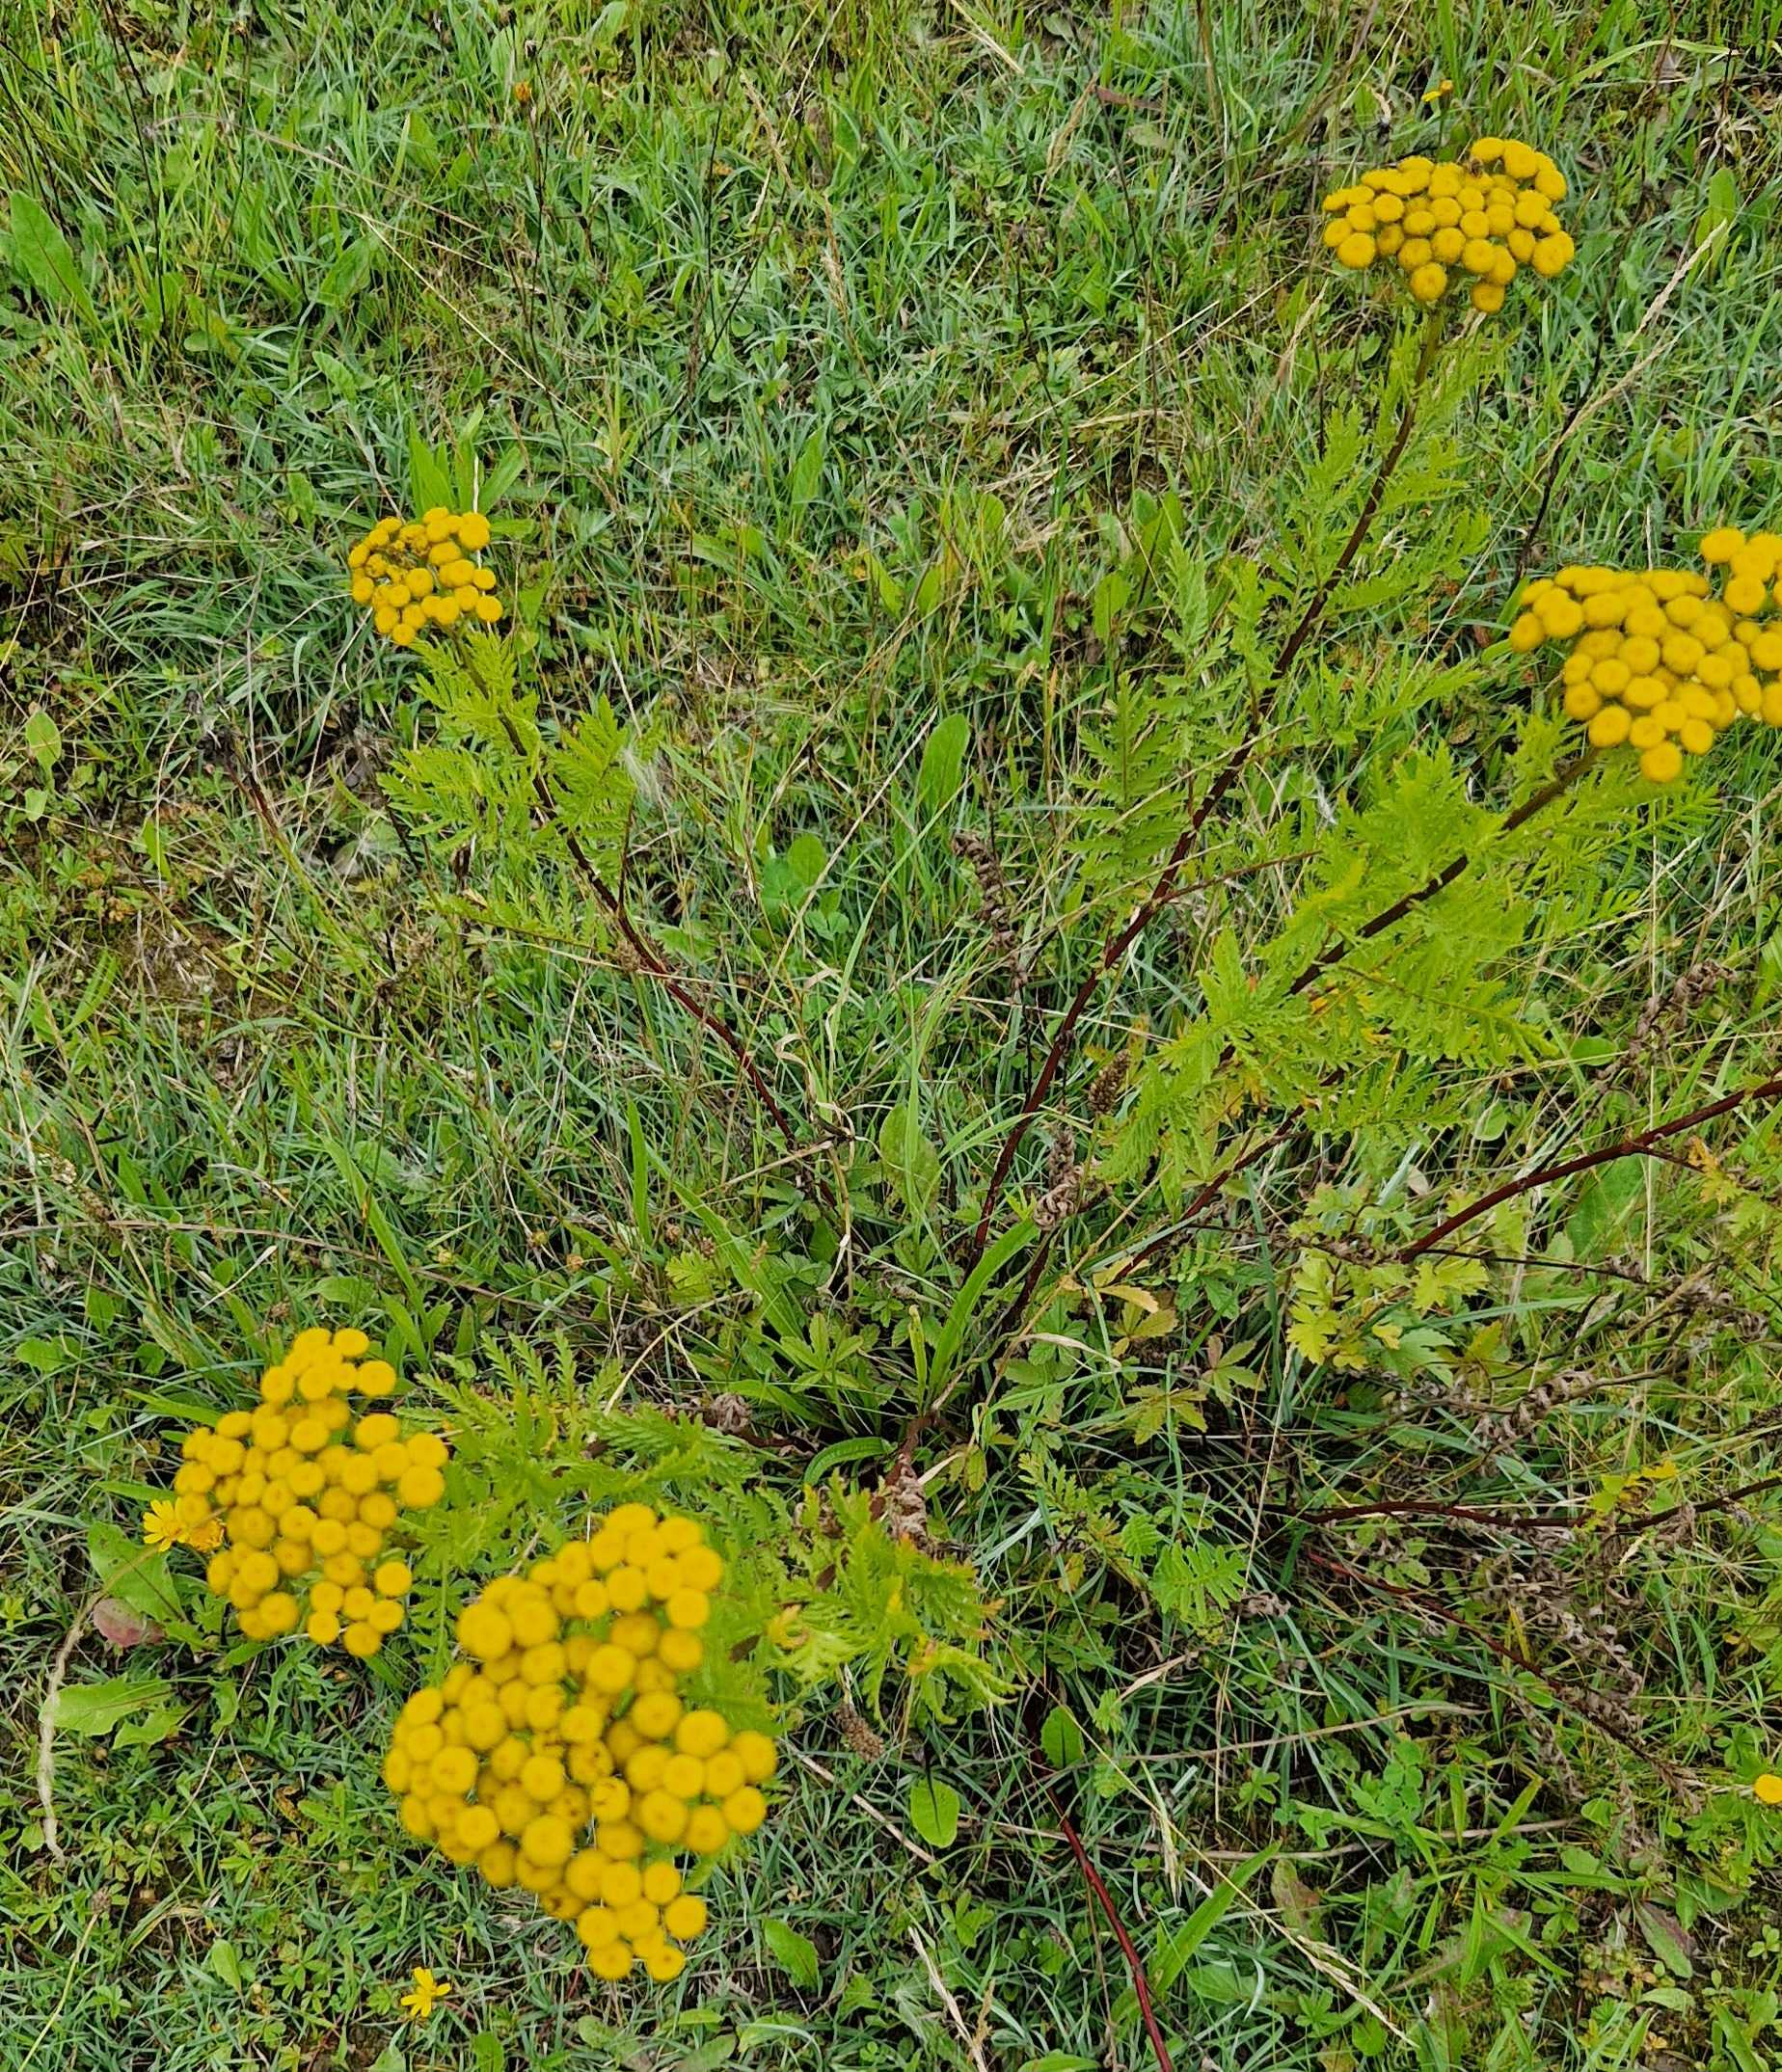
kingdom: Plantae
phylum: Tracheophyta
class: Magnoliopsida
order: Asterales
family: Asteraceae
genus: Tanacetum
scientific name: Tanacetum vulgare
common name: Rejnfan
